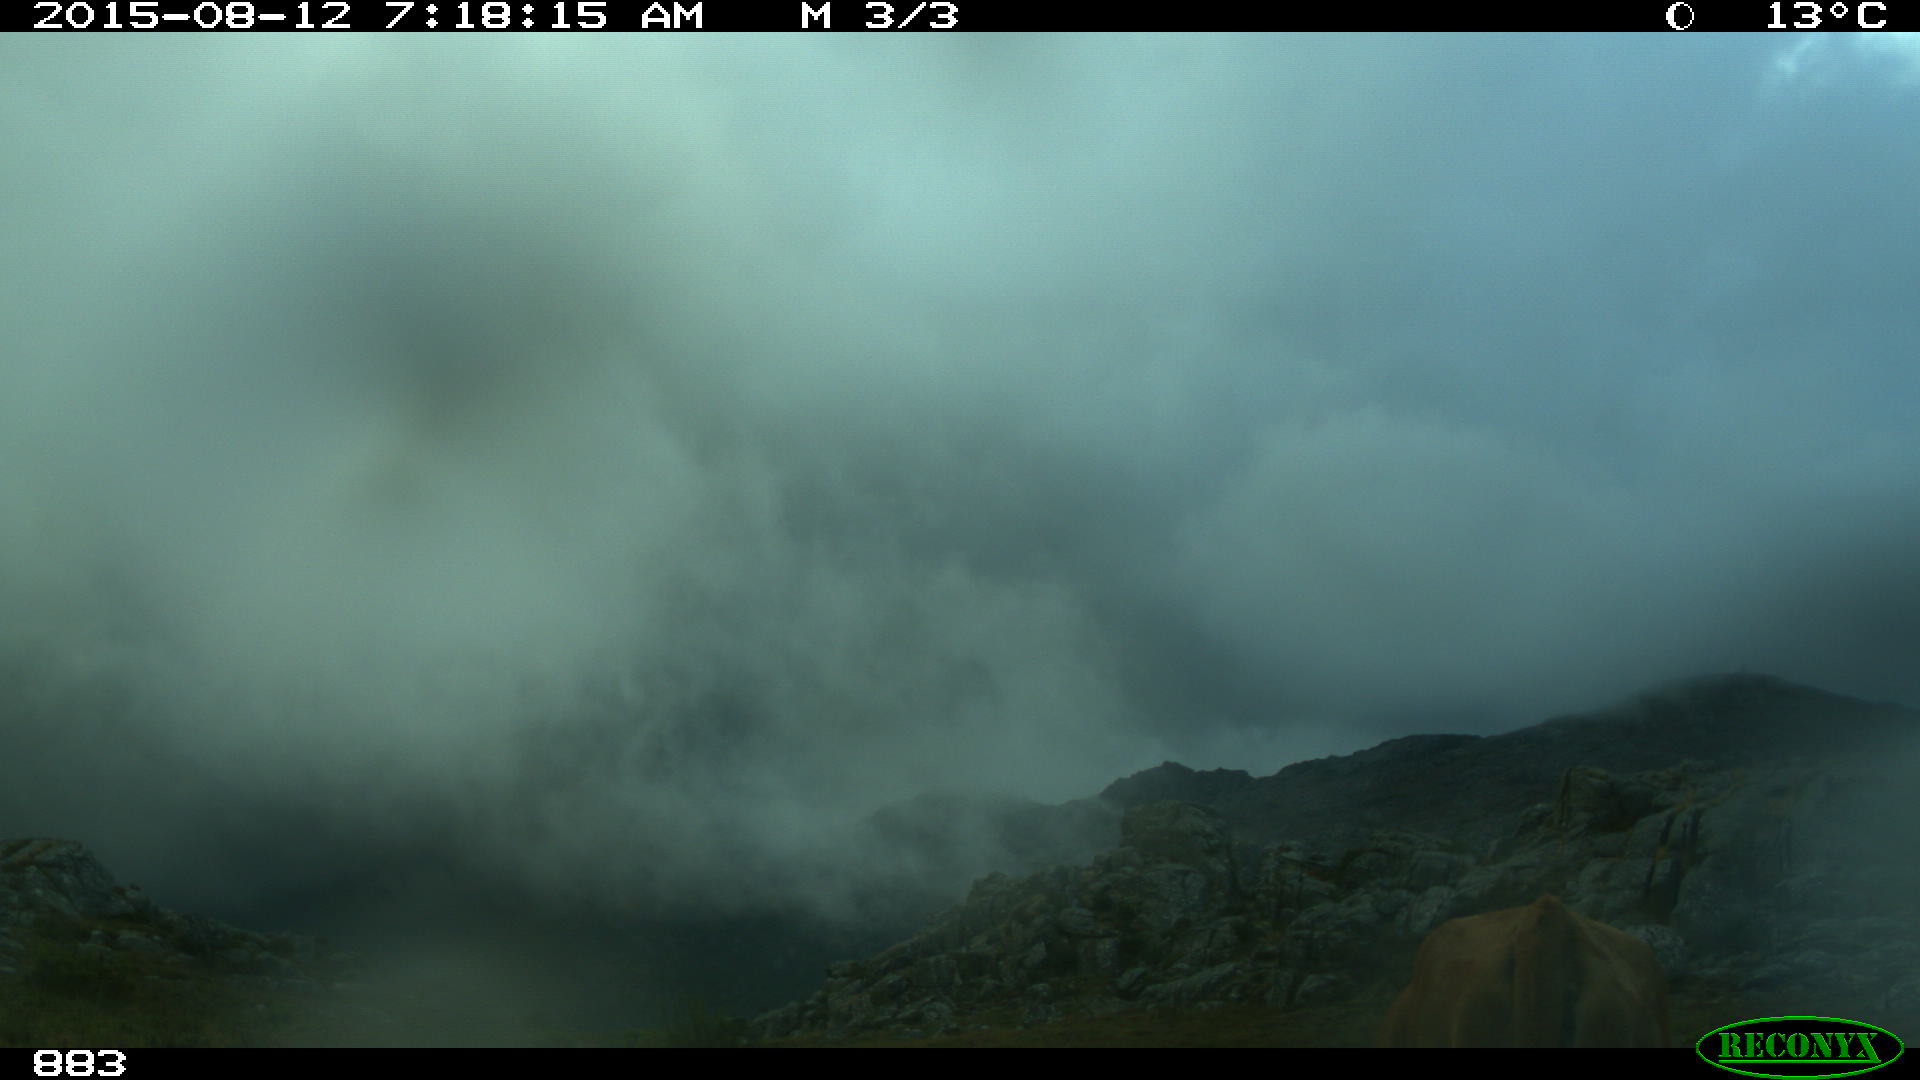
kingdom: Animalia
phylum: Chordata
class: Mammalia
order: Artiodactyla
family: Bovidae
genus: Bos
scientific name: Bos taurus
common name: Domesticated cattle
